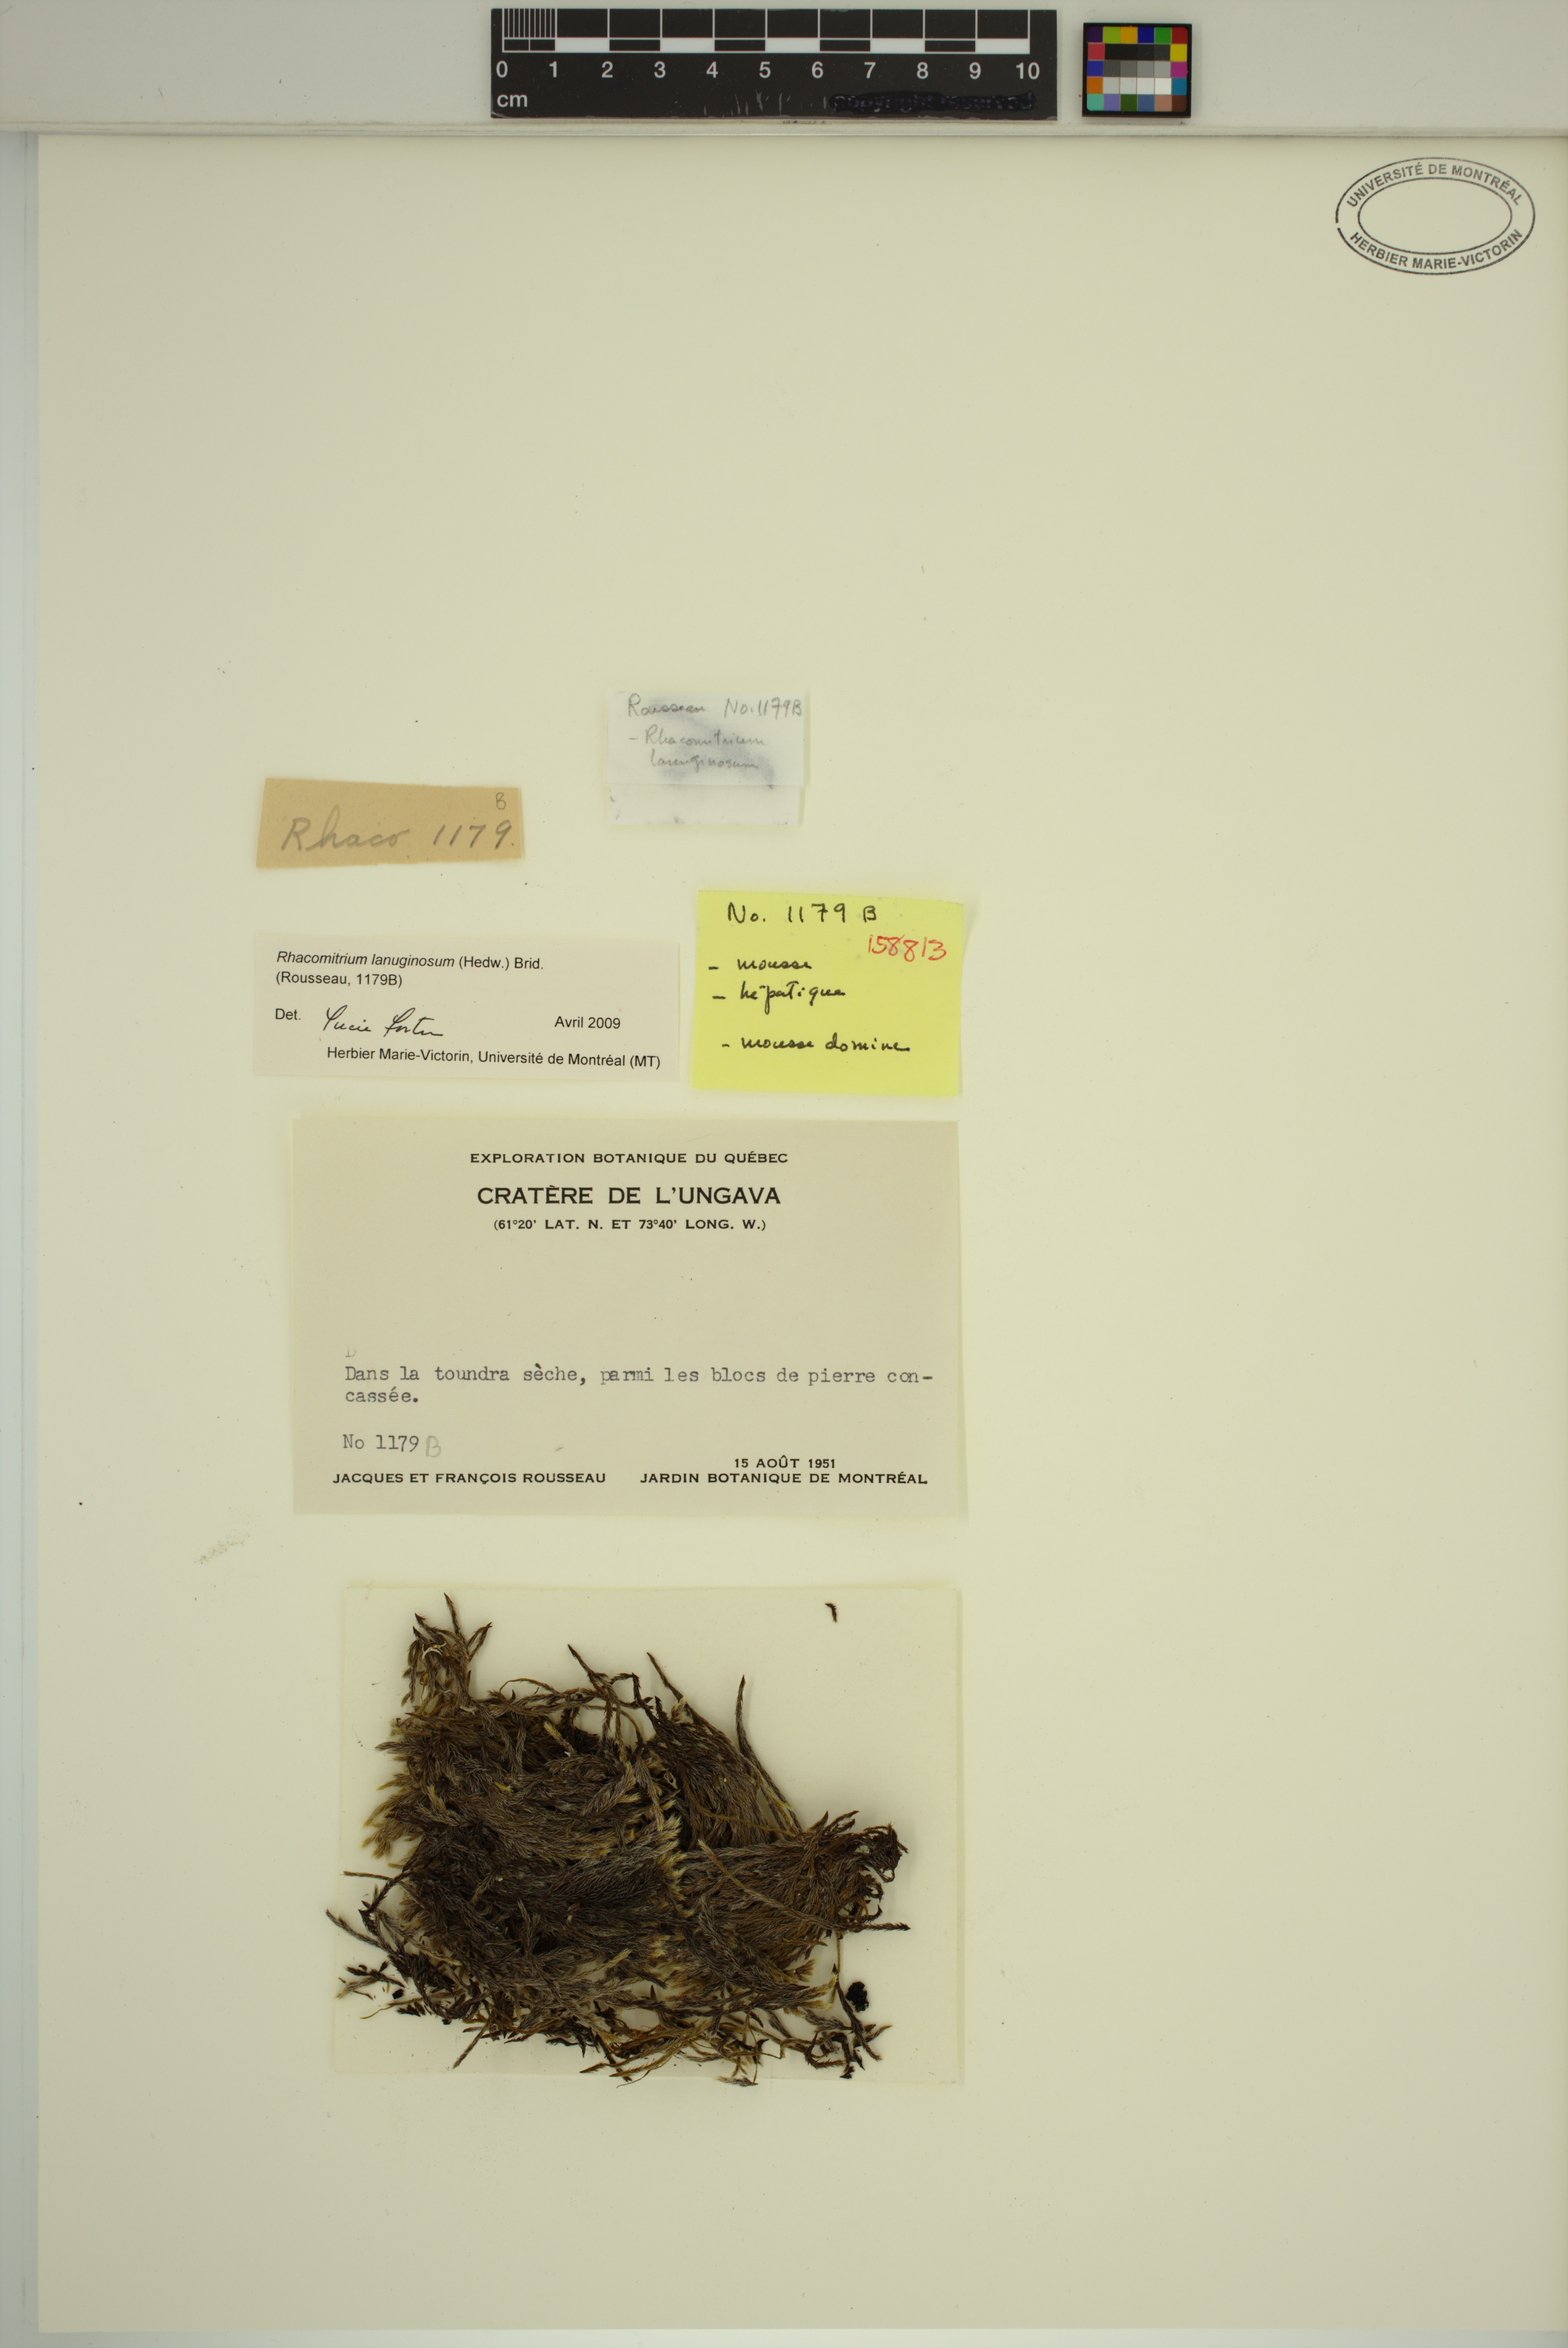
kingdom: Plantae
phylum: Bryophyta
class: Bryopsida
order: Grimmiales
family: Grimmiaceae
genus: Racomitrium
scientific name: Racomitrium lanuginosum
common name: Hoary rock moss
